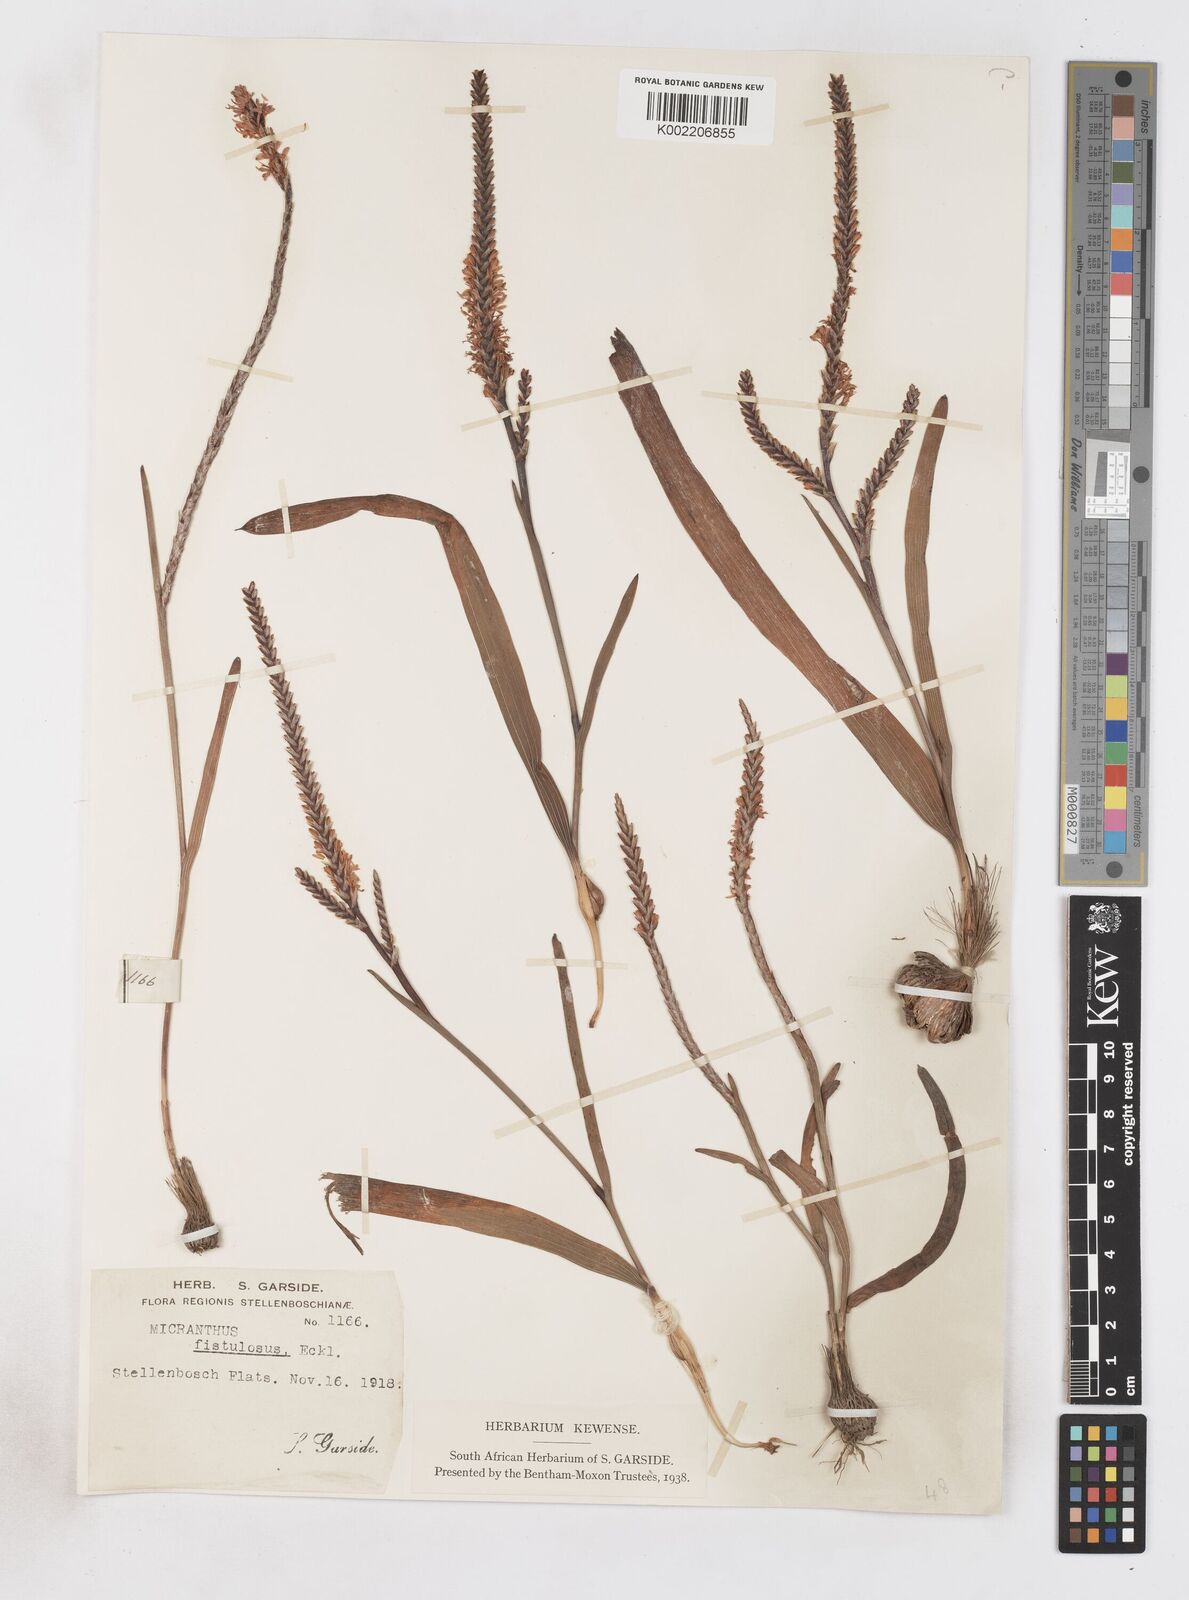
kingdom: Plantae
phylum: Tracheophyta
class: Liliopsida
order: Asparagales
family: Iridaceae
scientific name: Iridaceae
